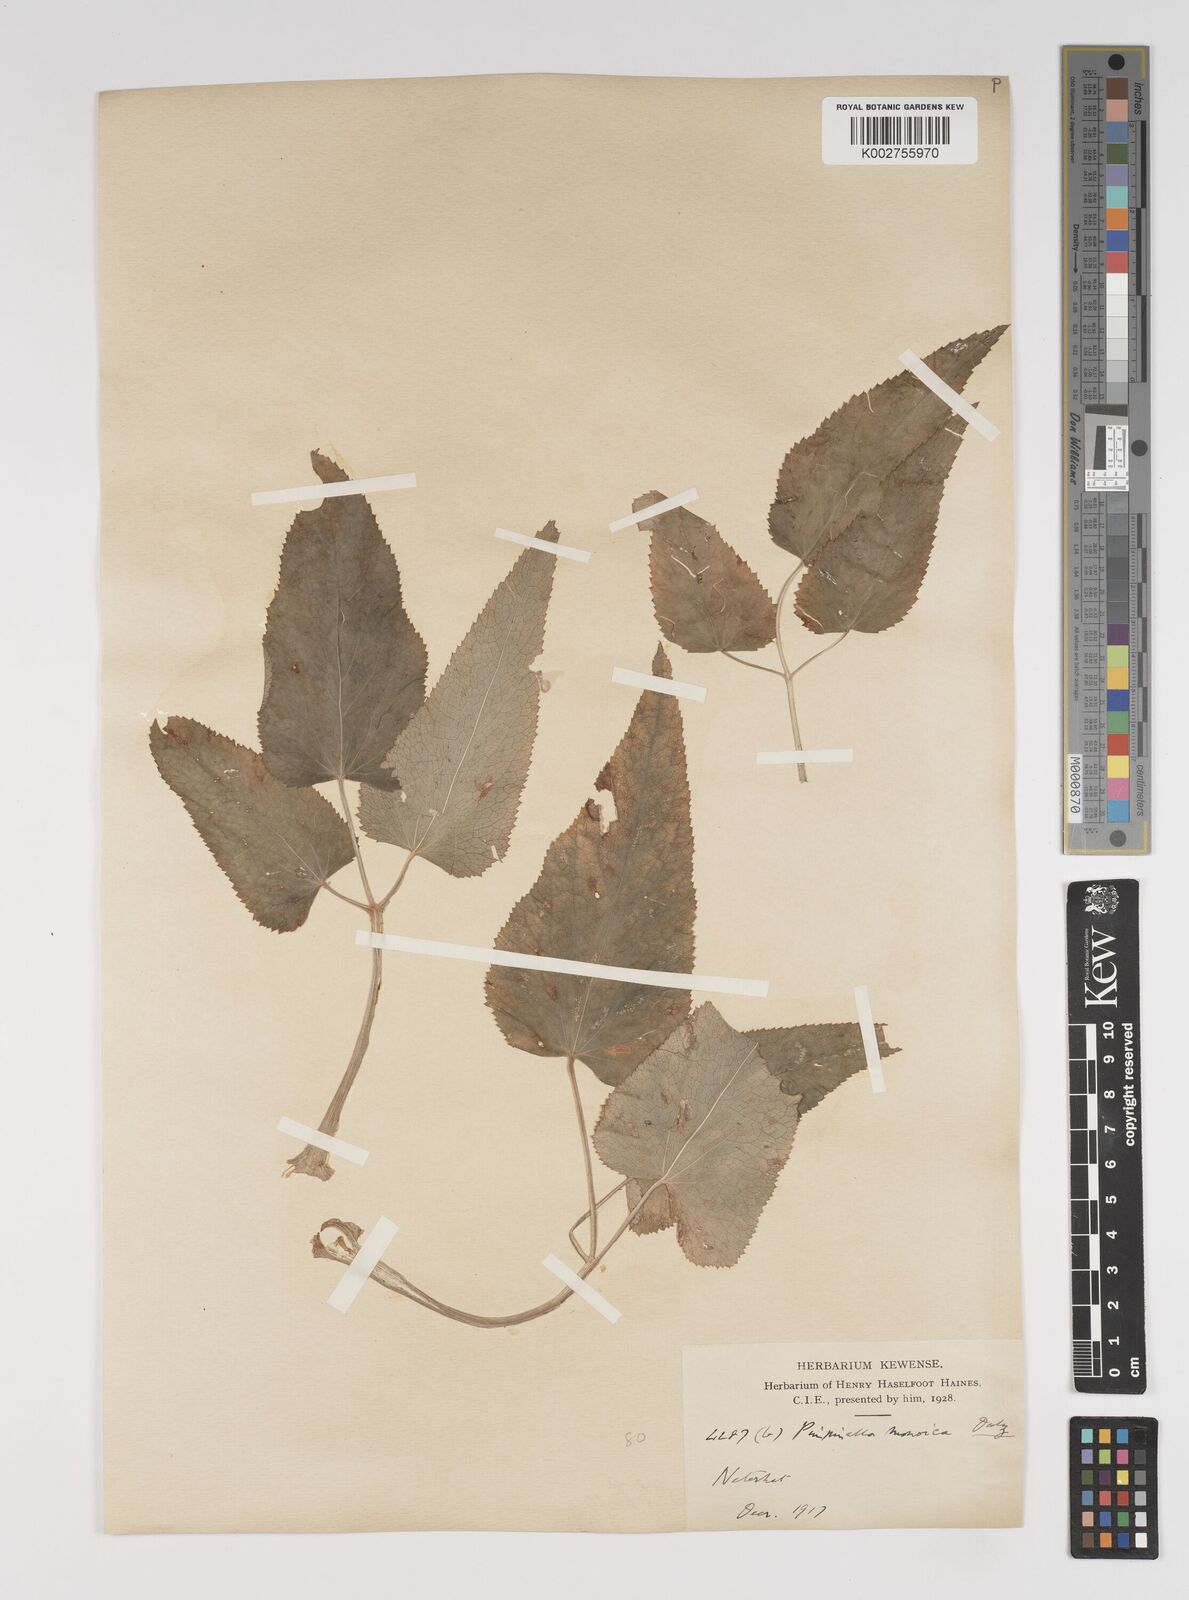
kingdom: Plantae
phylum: Tracheophyta
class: Magnoliopsida
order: Apiales
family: Apiaceae
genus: Pimpinella
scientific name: Pimpinella wallichiana
